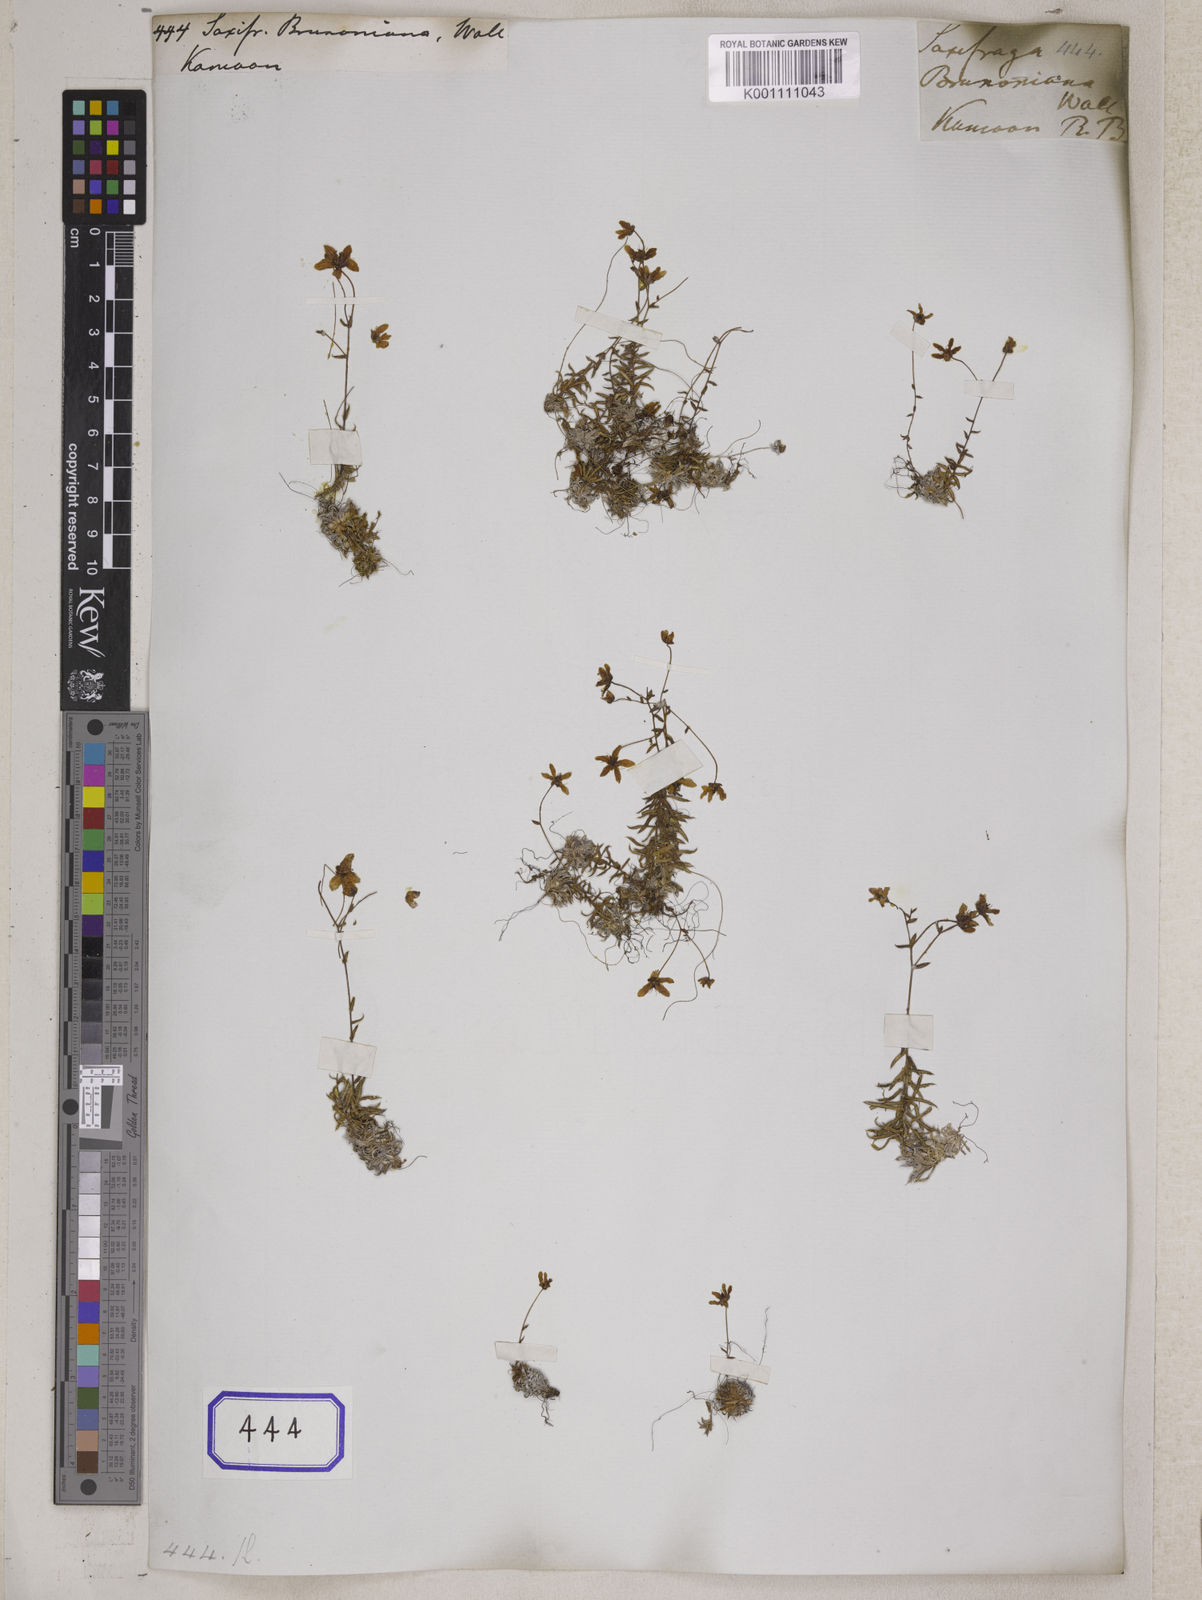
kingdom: Plantae
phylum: Tracheophyta
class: Magnoliopsida
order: Saxifragales
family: Saxifragaceae
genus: Saxifraga
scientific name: Saxifraga
